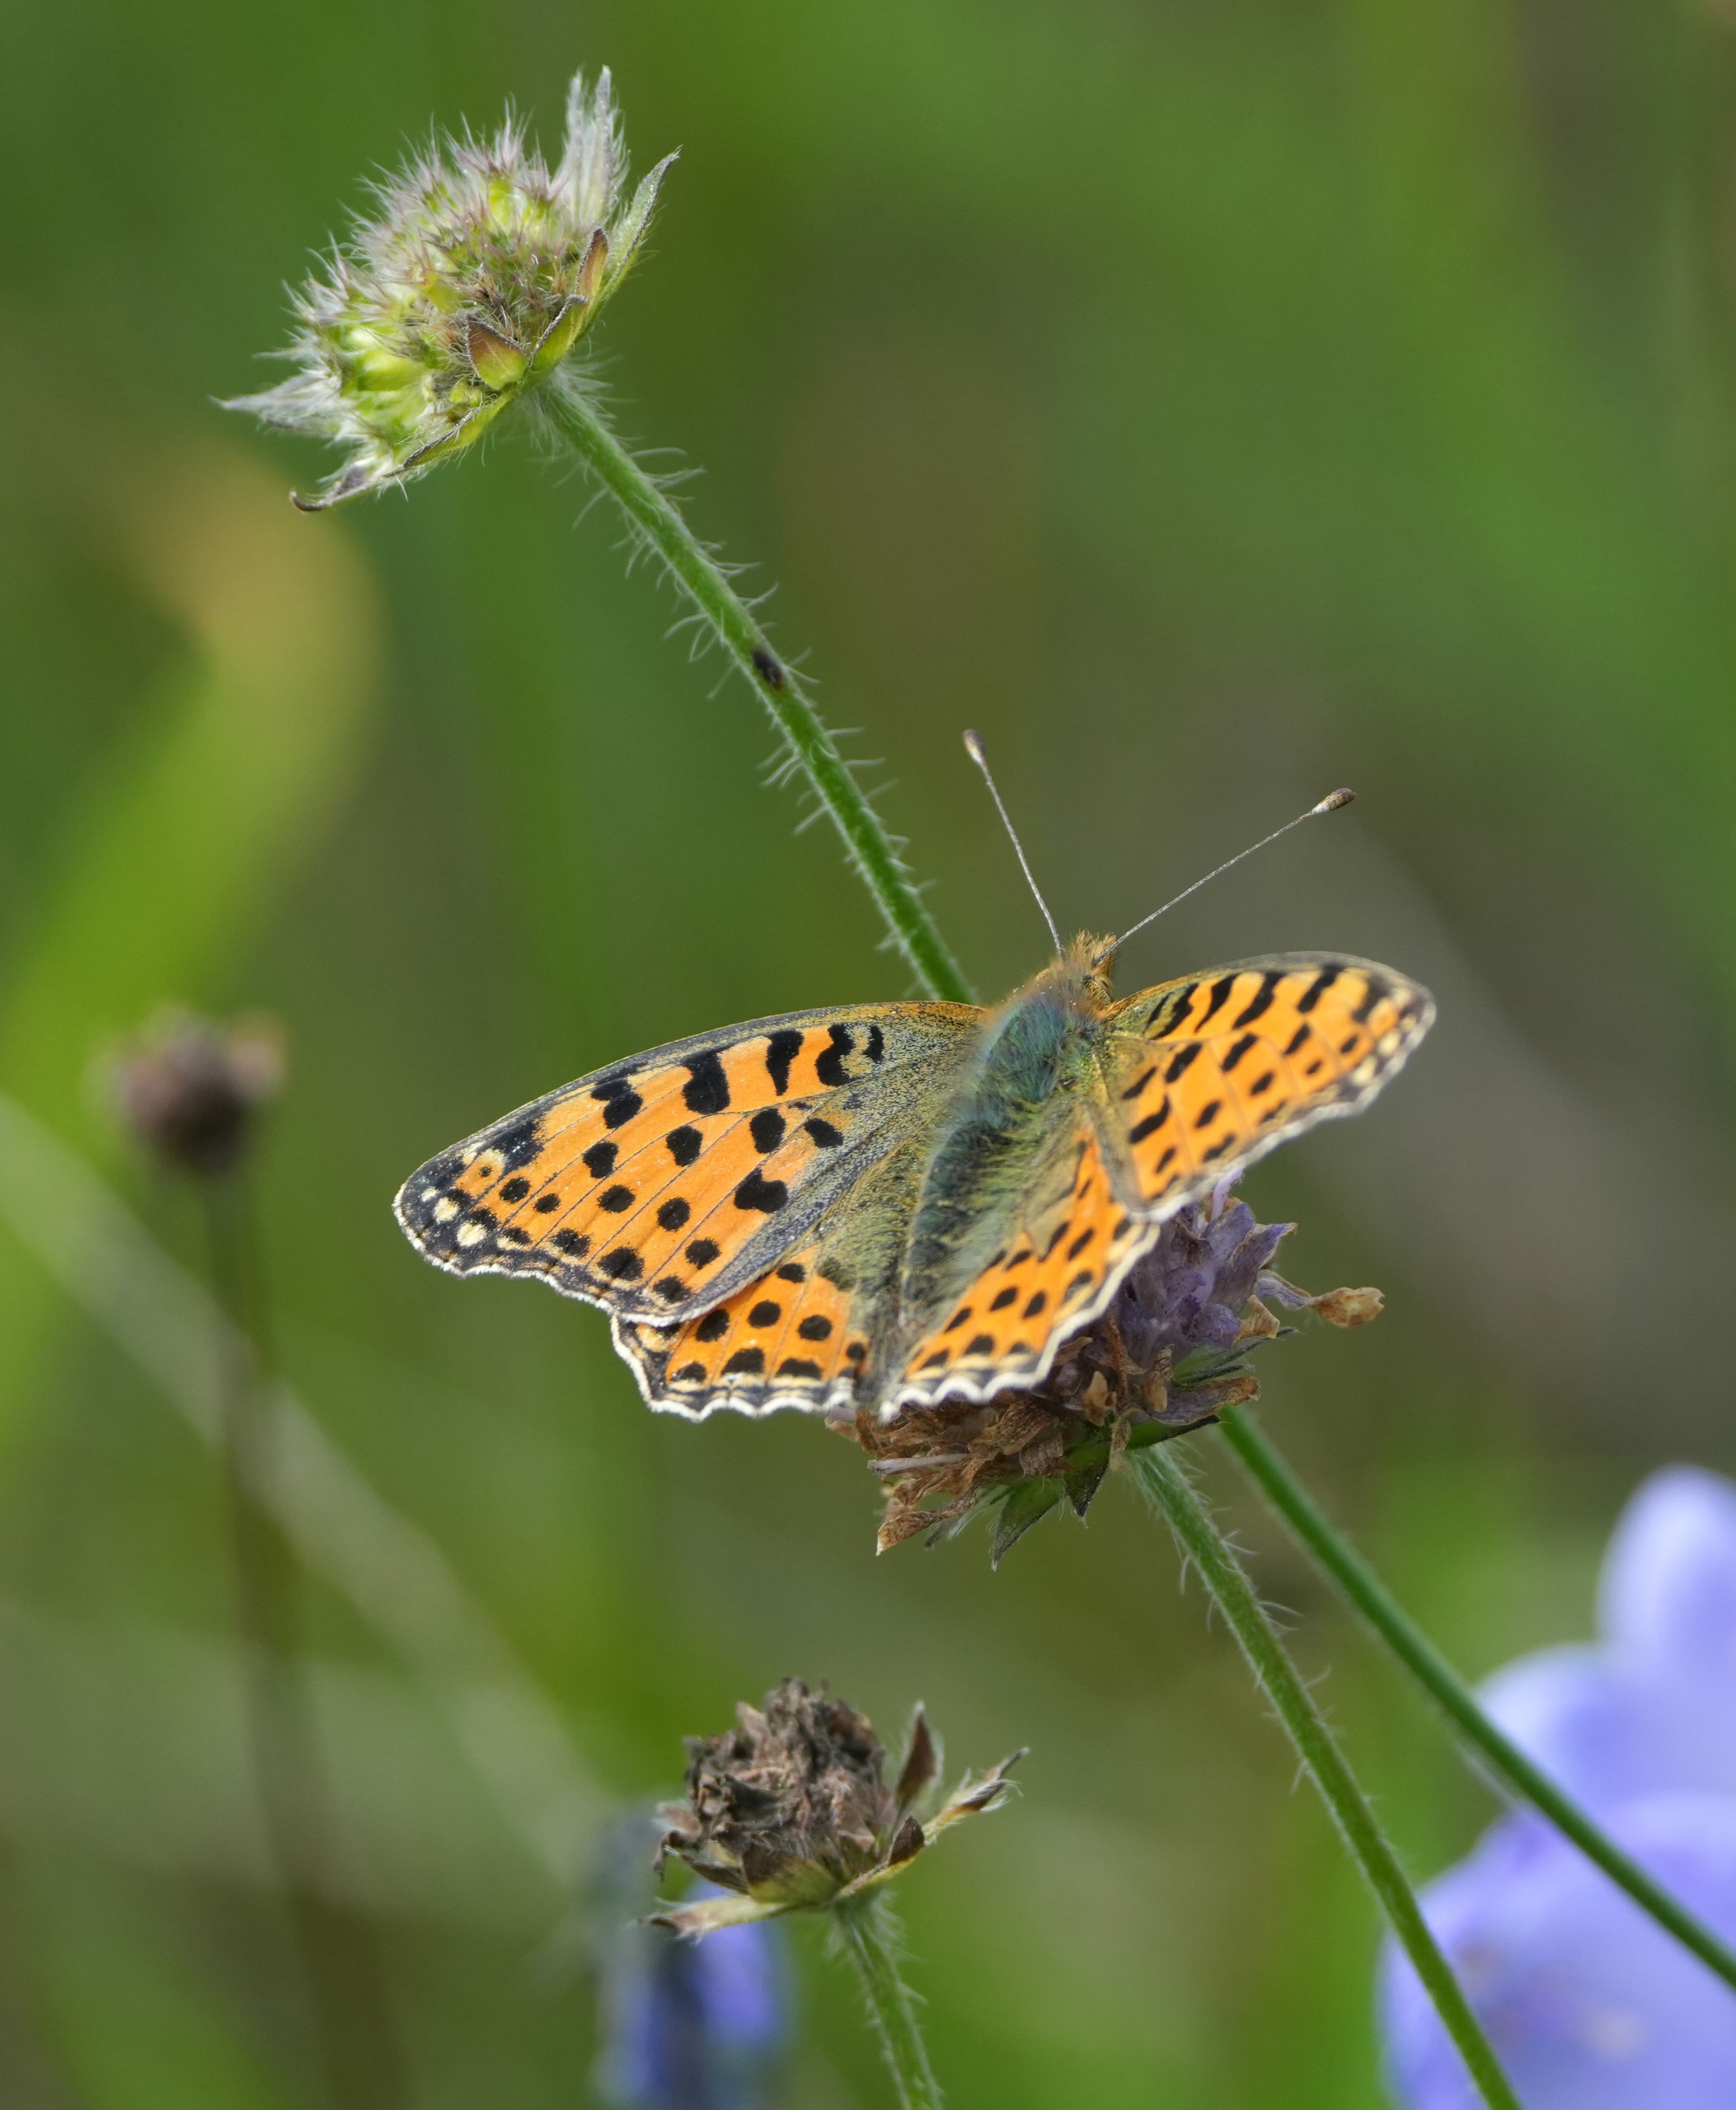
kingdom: Animalia
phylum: Arthropoda
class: Insecta
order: Lepidoptera
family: Nymphalidae
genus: Issoria
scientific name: Issoria lathonia
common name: Storplettet perlemorsommerfugl
